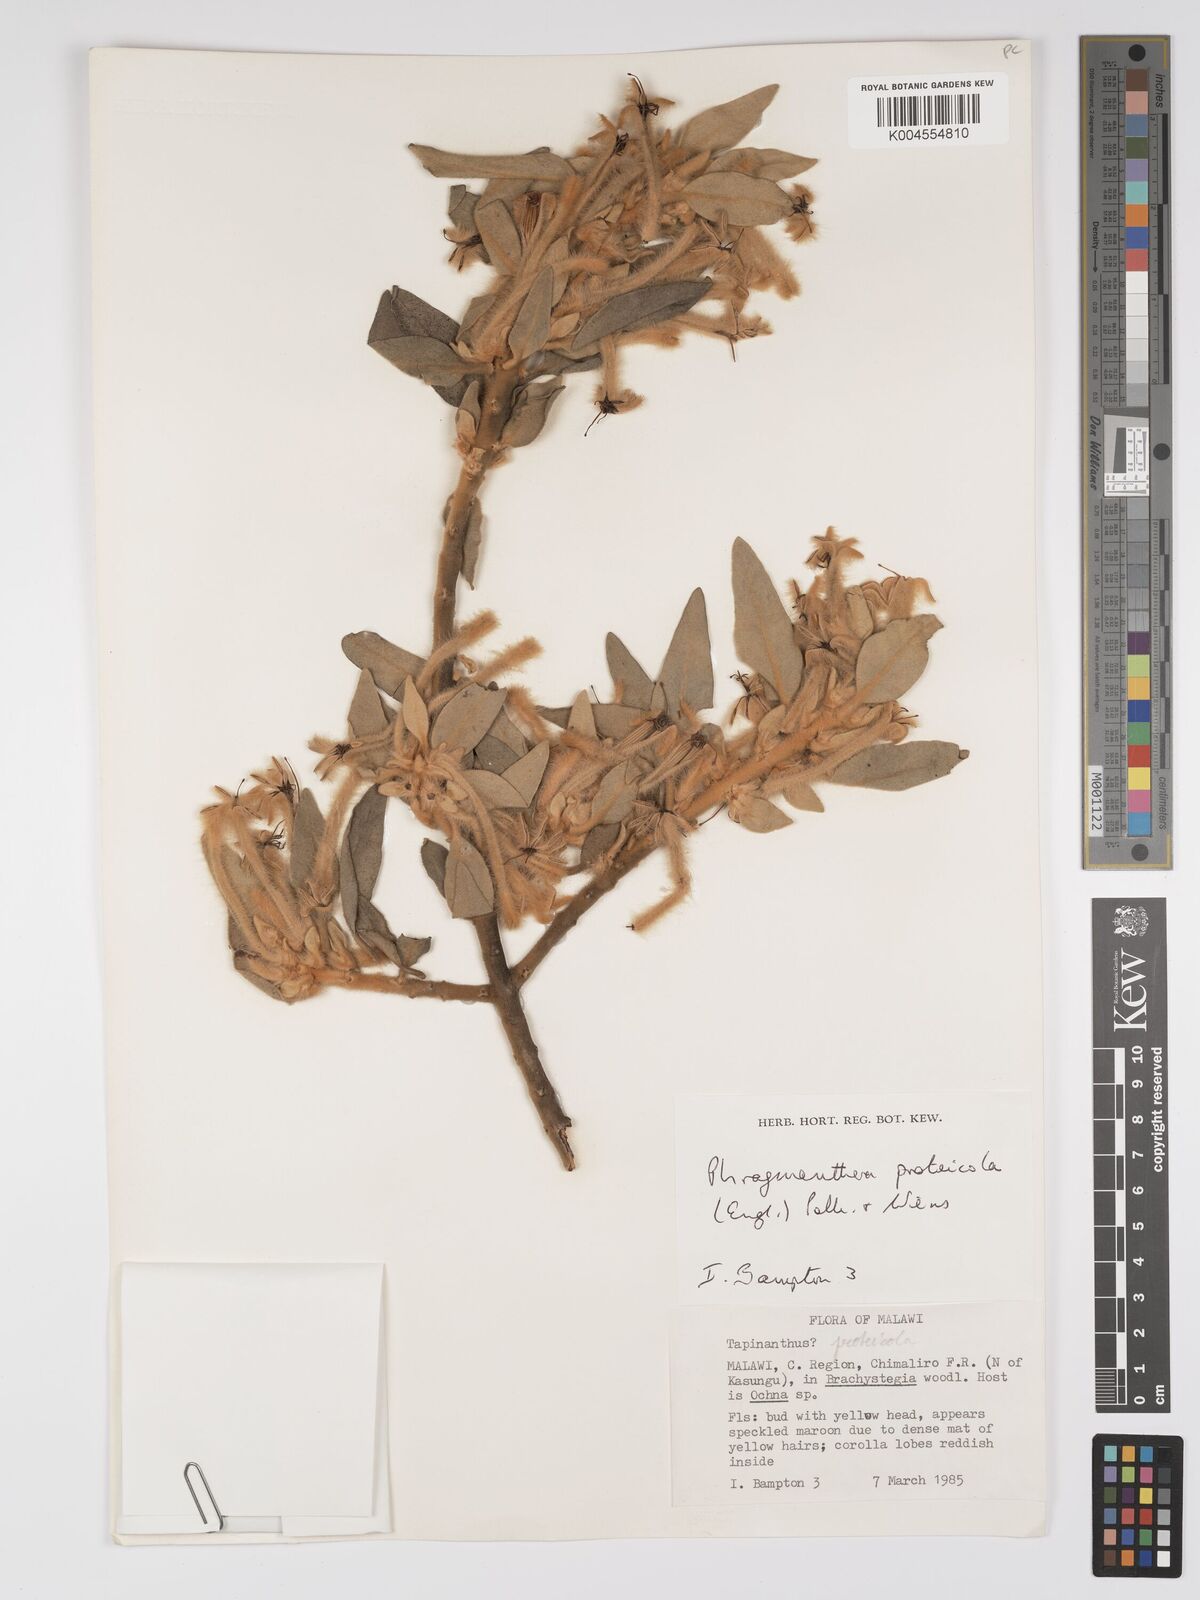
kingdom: Plantae
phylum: Tracheophyta
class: Magnoliopsida
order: Santalales
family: Loranthaceae
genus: Phragmanthera
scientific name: Phragmanthera proteicola
